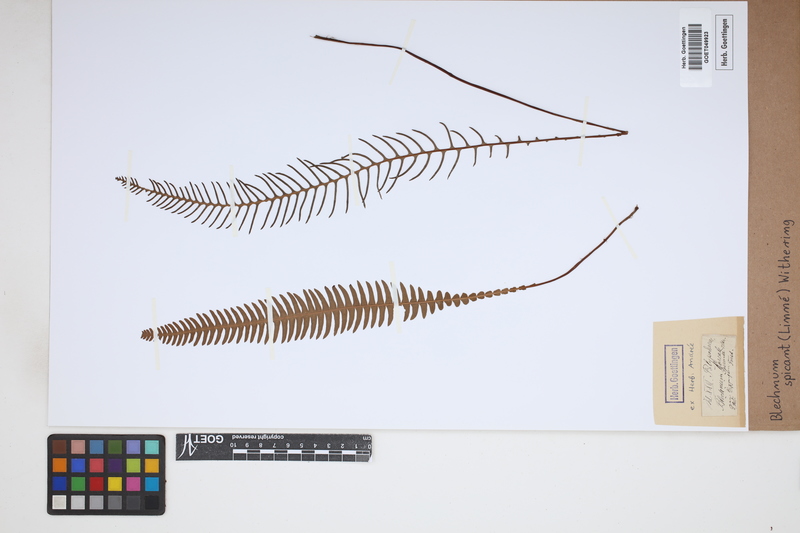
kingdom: Plantae
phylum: Tracheophyta
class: Polypodiopsida
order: Polypodiales
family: Blechnaceae
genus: Struthiopteris
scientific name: Struthiopteris spicant
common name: Deer fern
